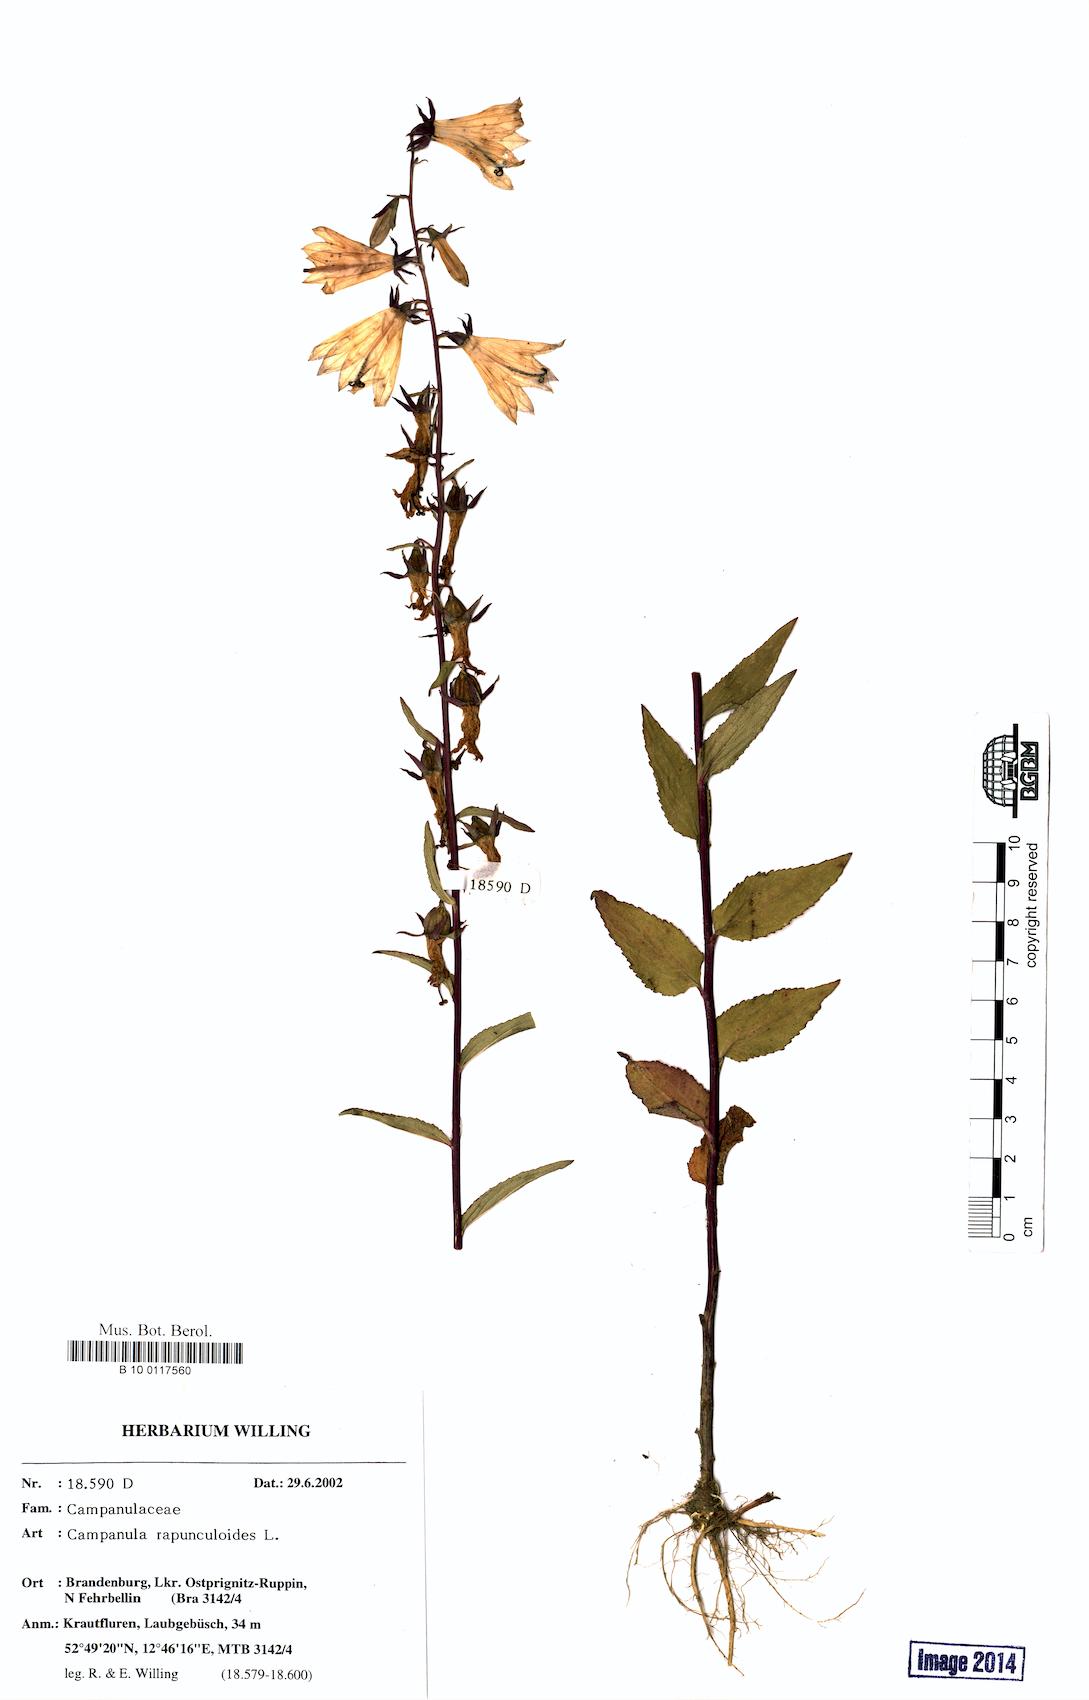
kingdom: Plantae
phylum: Tracheophyta
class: Magnoliopsida
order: Asterales
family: Campanulaceae
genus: Campanula
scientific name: Campanula rapunculoides
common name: Creeping bellflower
